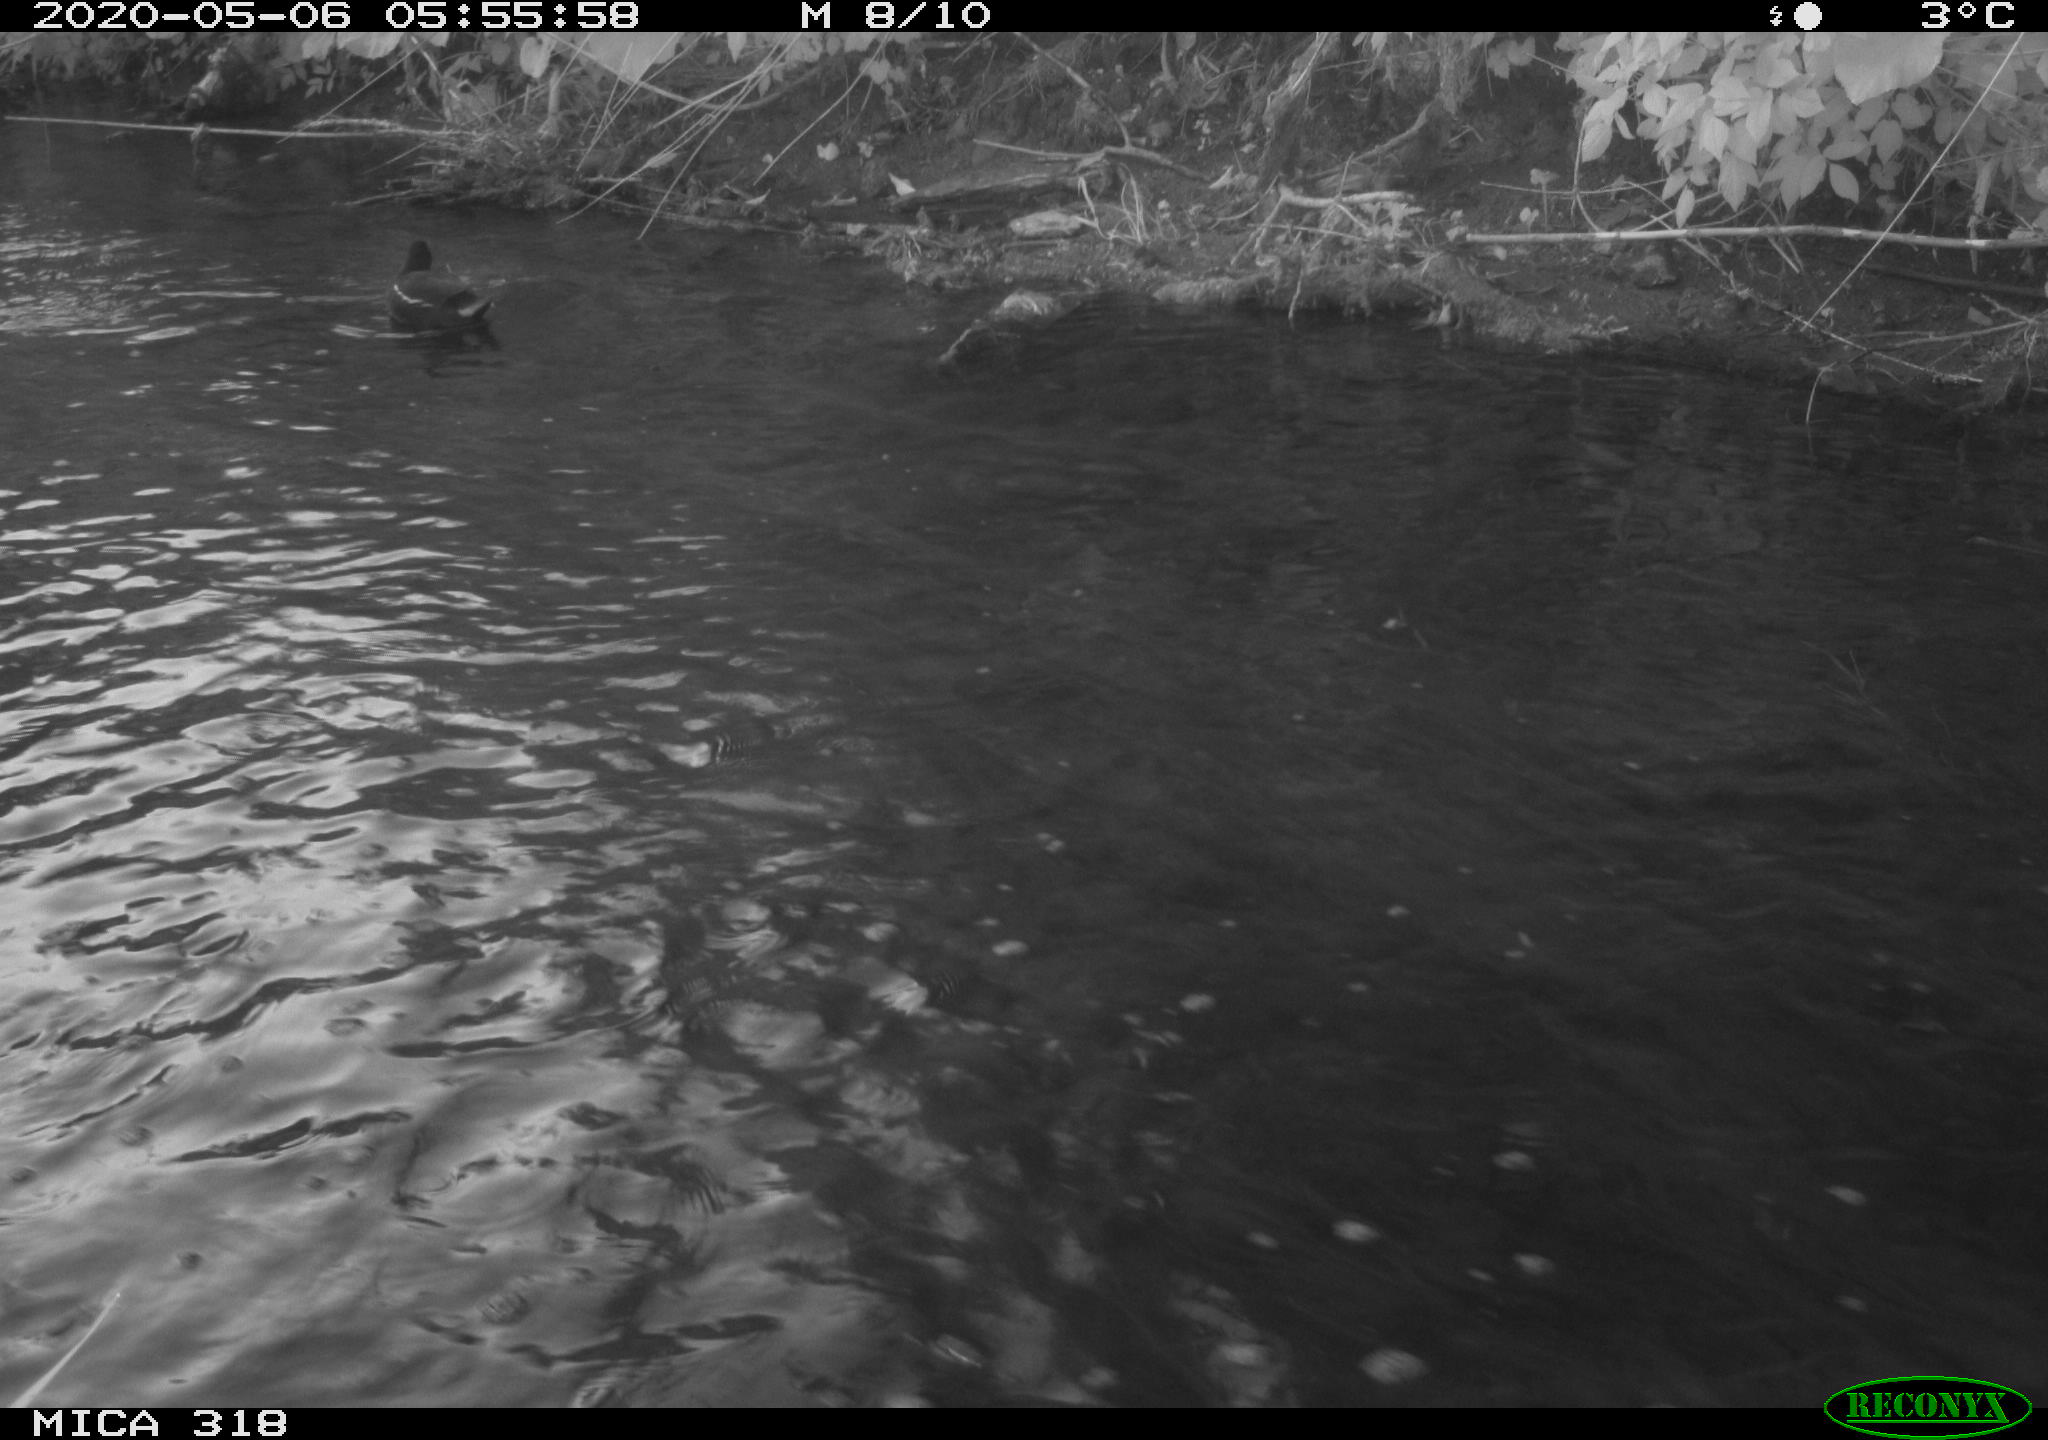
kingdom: Animalia
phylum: Chordata
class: Aves
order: Gruiformes
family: Rallidae
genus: Gallinula
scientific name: Gallinula chloropus
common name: Common moorhen
